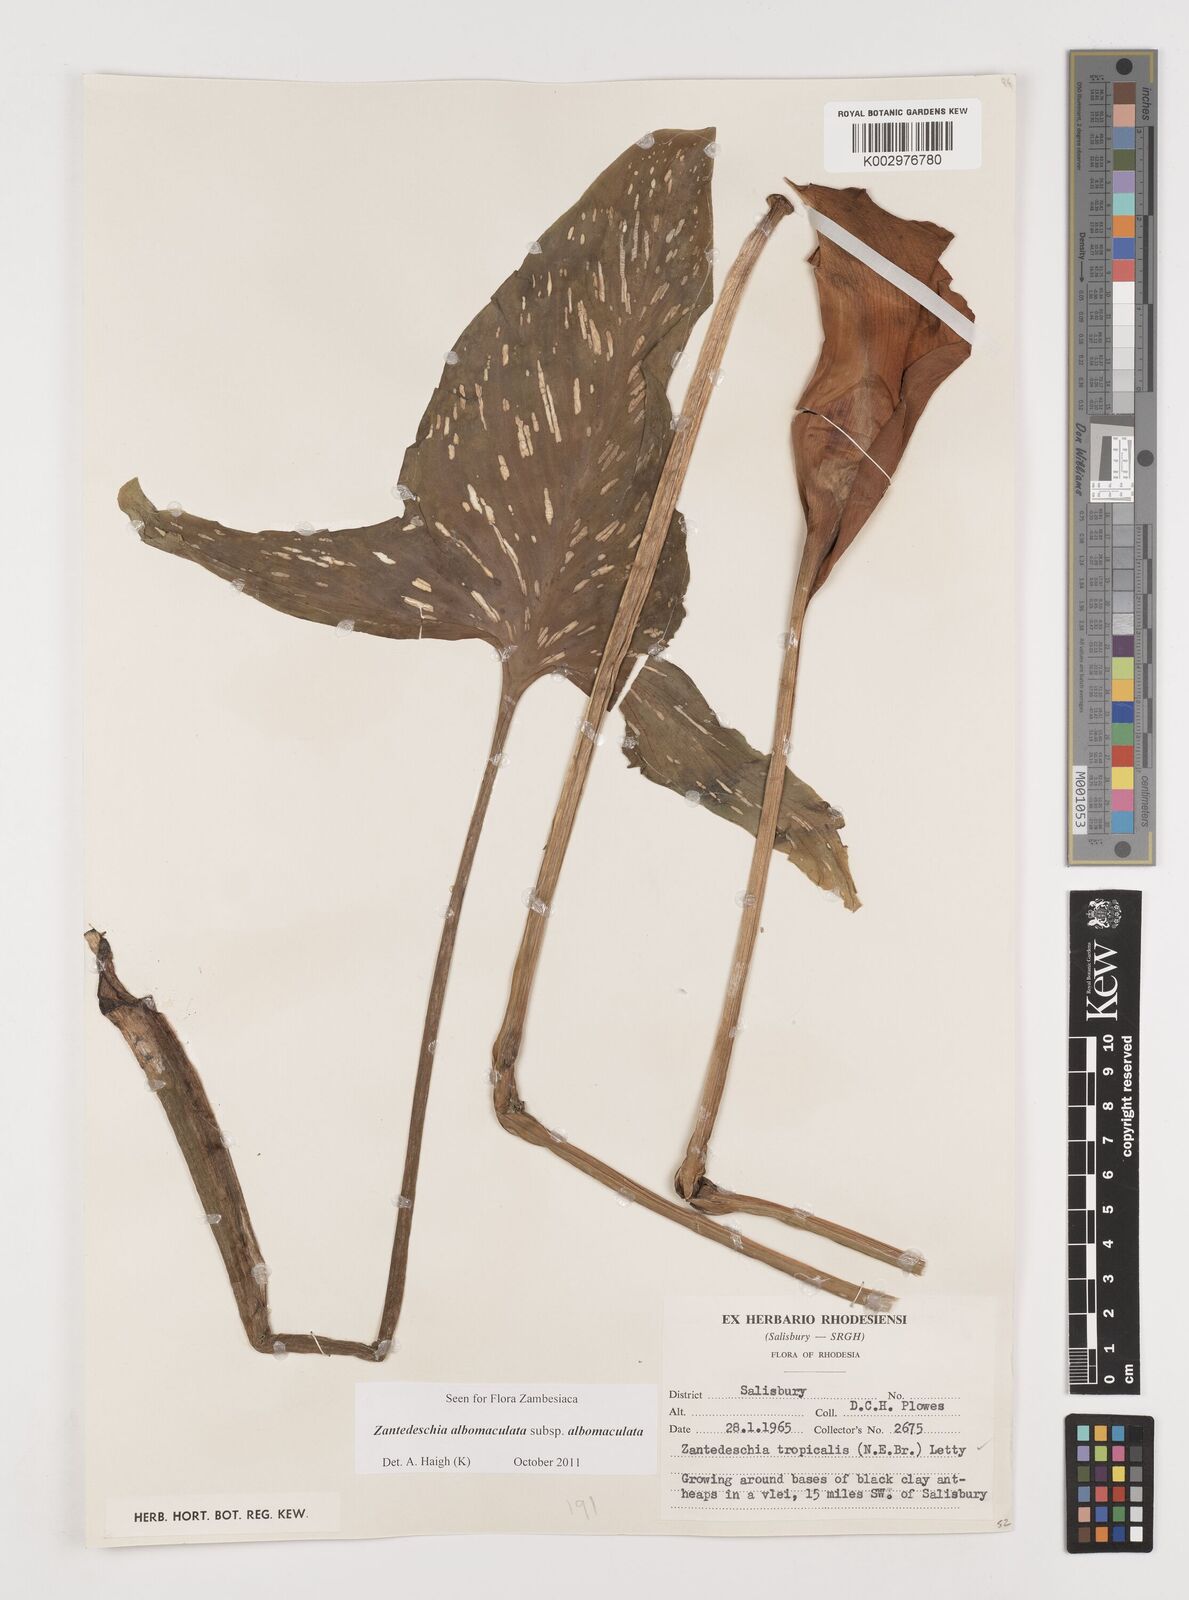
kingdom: Plantae
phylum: Tracheophyta
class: Liliopsida
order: Alismatales
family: Araceae
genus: Zantedeschia
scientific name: Zantedeschia albomaculata
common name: Spotted calla lily
